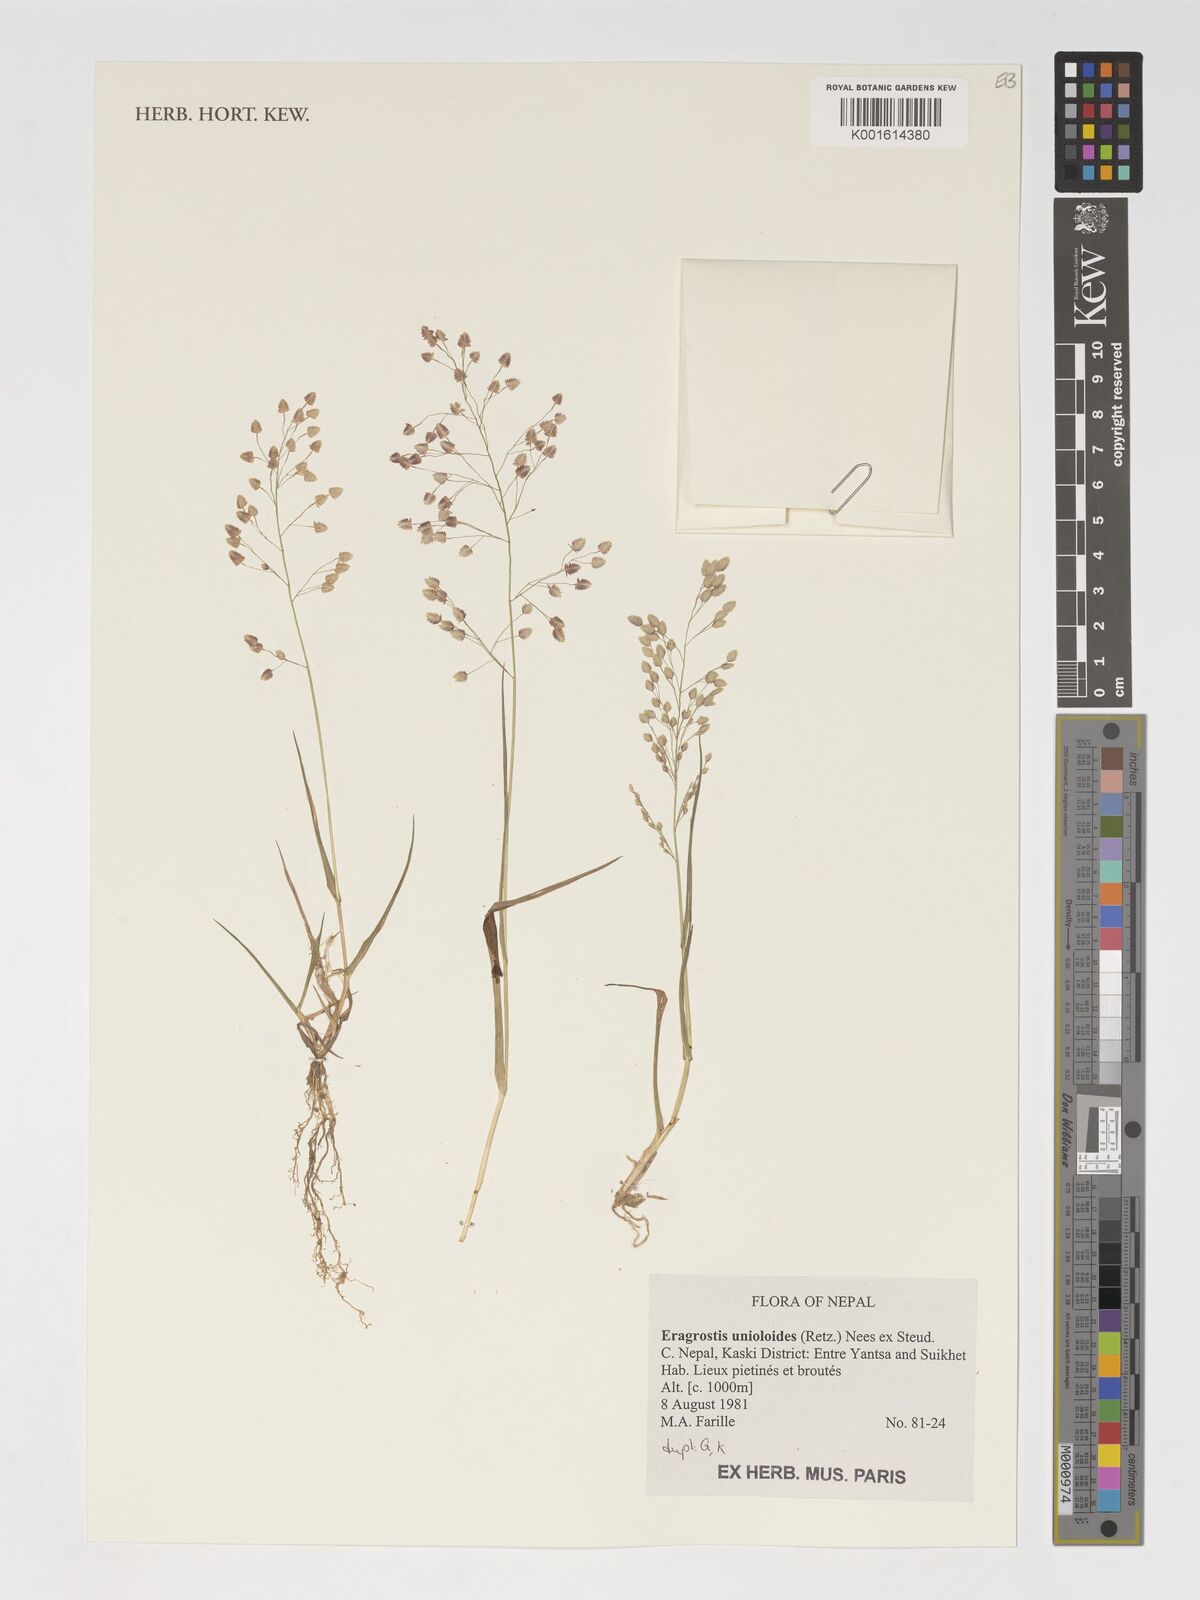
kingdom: Plantae
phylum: Tracheophyta
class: Liliopsida
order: Poales
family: Poaceae
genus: Eragrostis
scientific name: Eragrostis unioloides
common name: Chinese lovegrass
